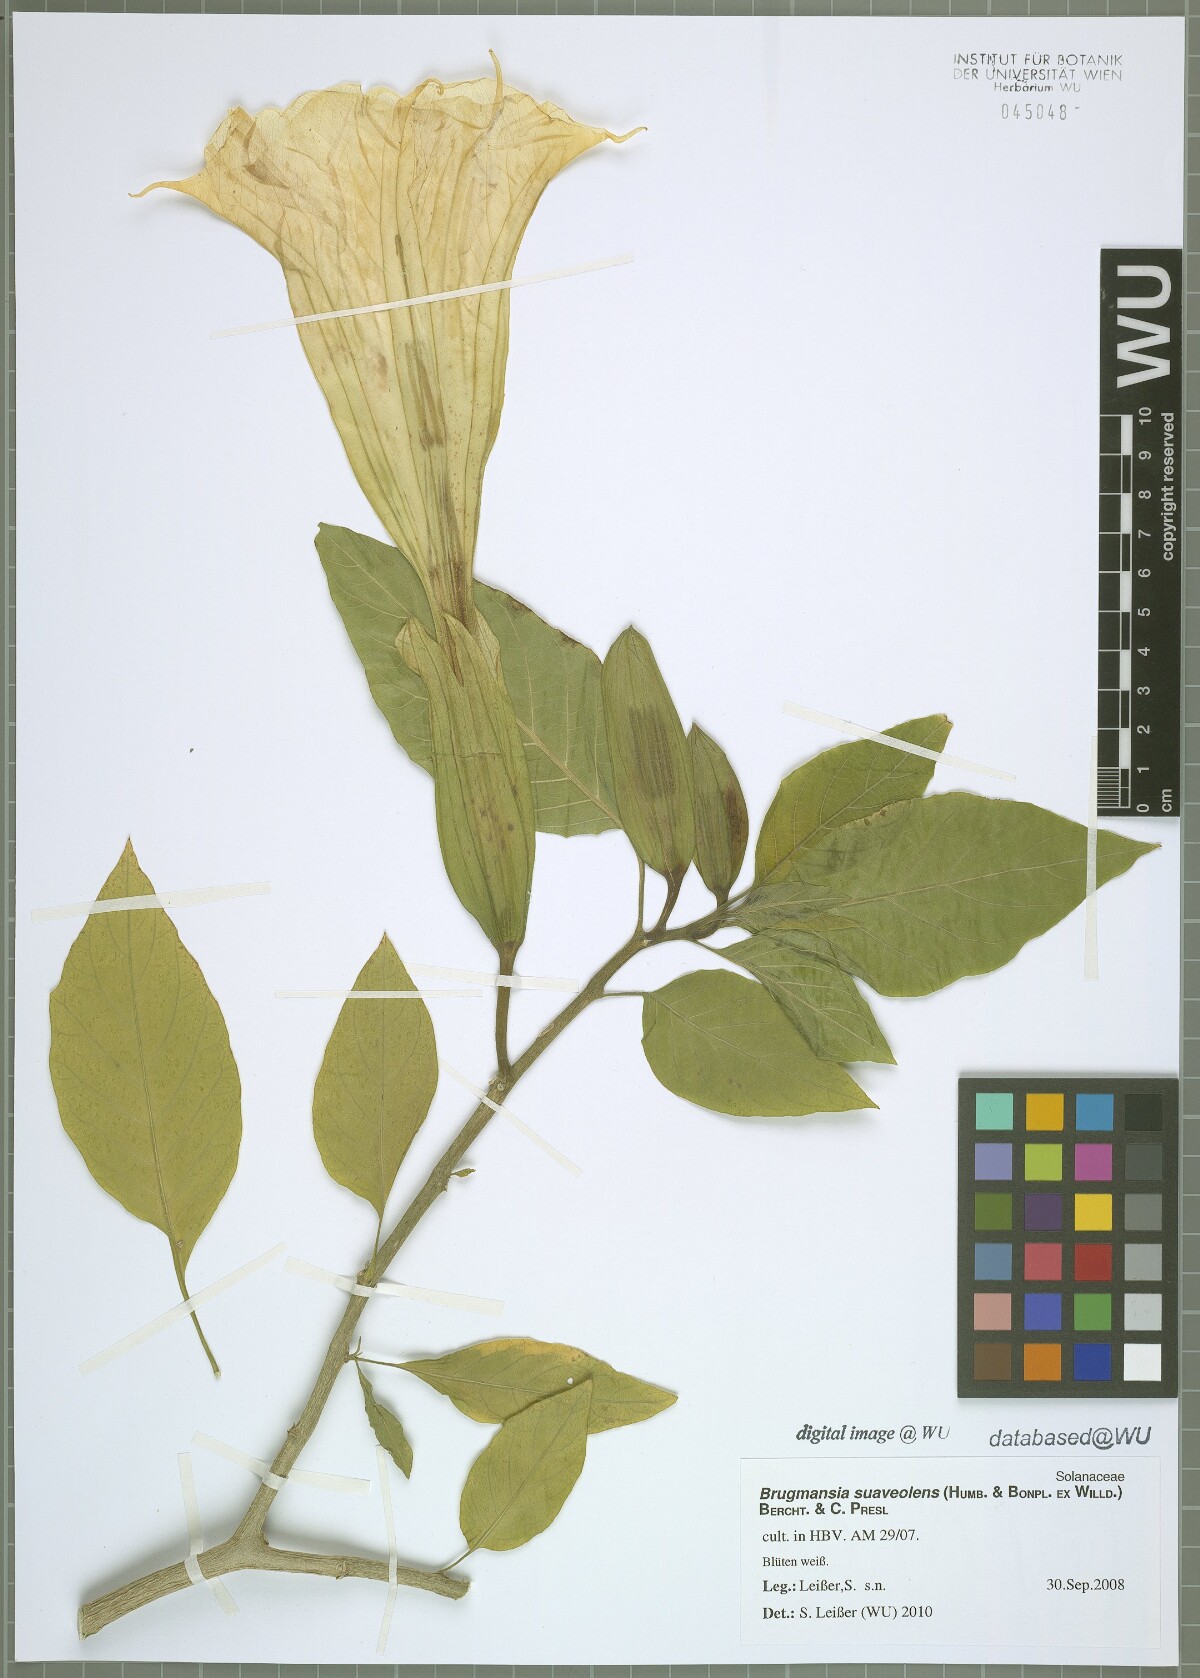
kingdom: Plantae
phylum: Tracheophyta
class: Magnoliopsida
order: Solanales
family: Solanaceae
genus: Brugmansia
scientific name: Brugmansia suaveolens
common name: Angel's tears
